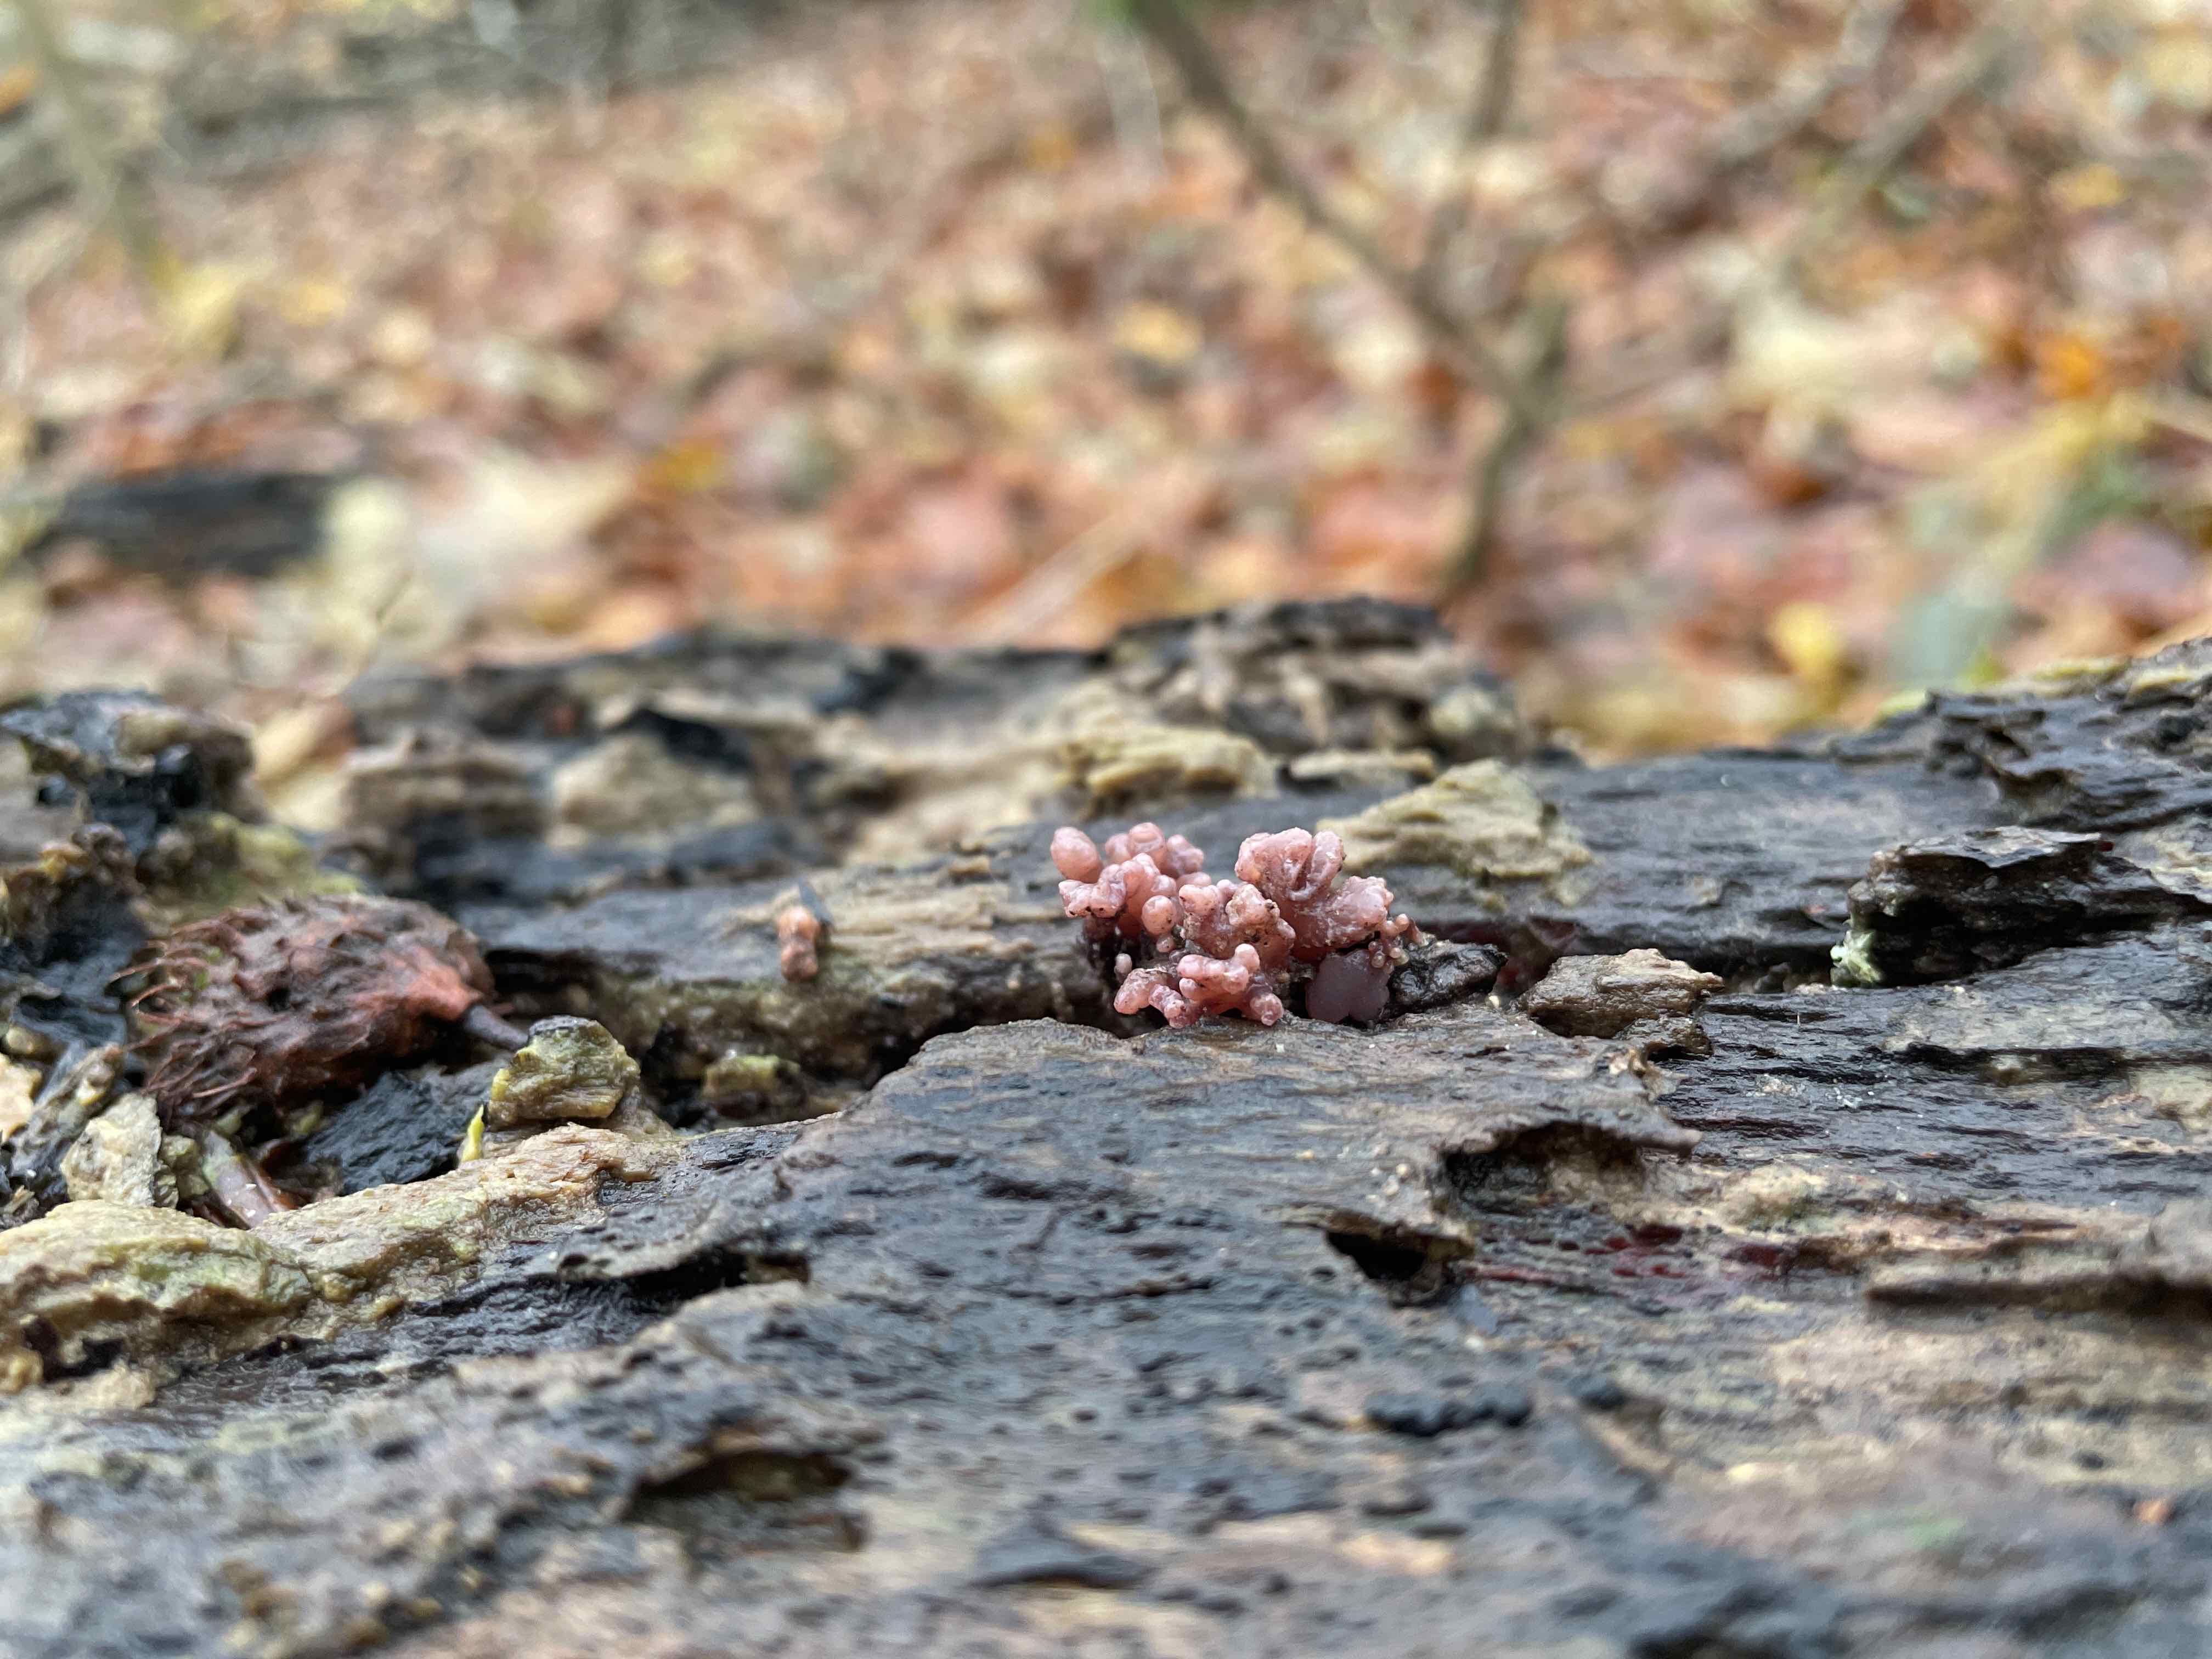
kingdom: Fungi
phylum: Ascomycota
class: Leotiomycetes
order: Helotiales
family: Gelatinodiscaceae
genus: Ascocoryne
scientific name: Ascocoryne sarcoides
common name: rødlilla sejskive
